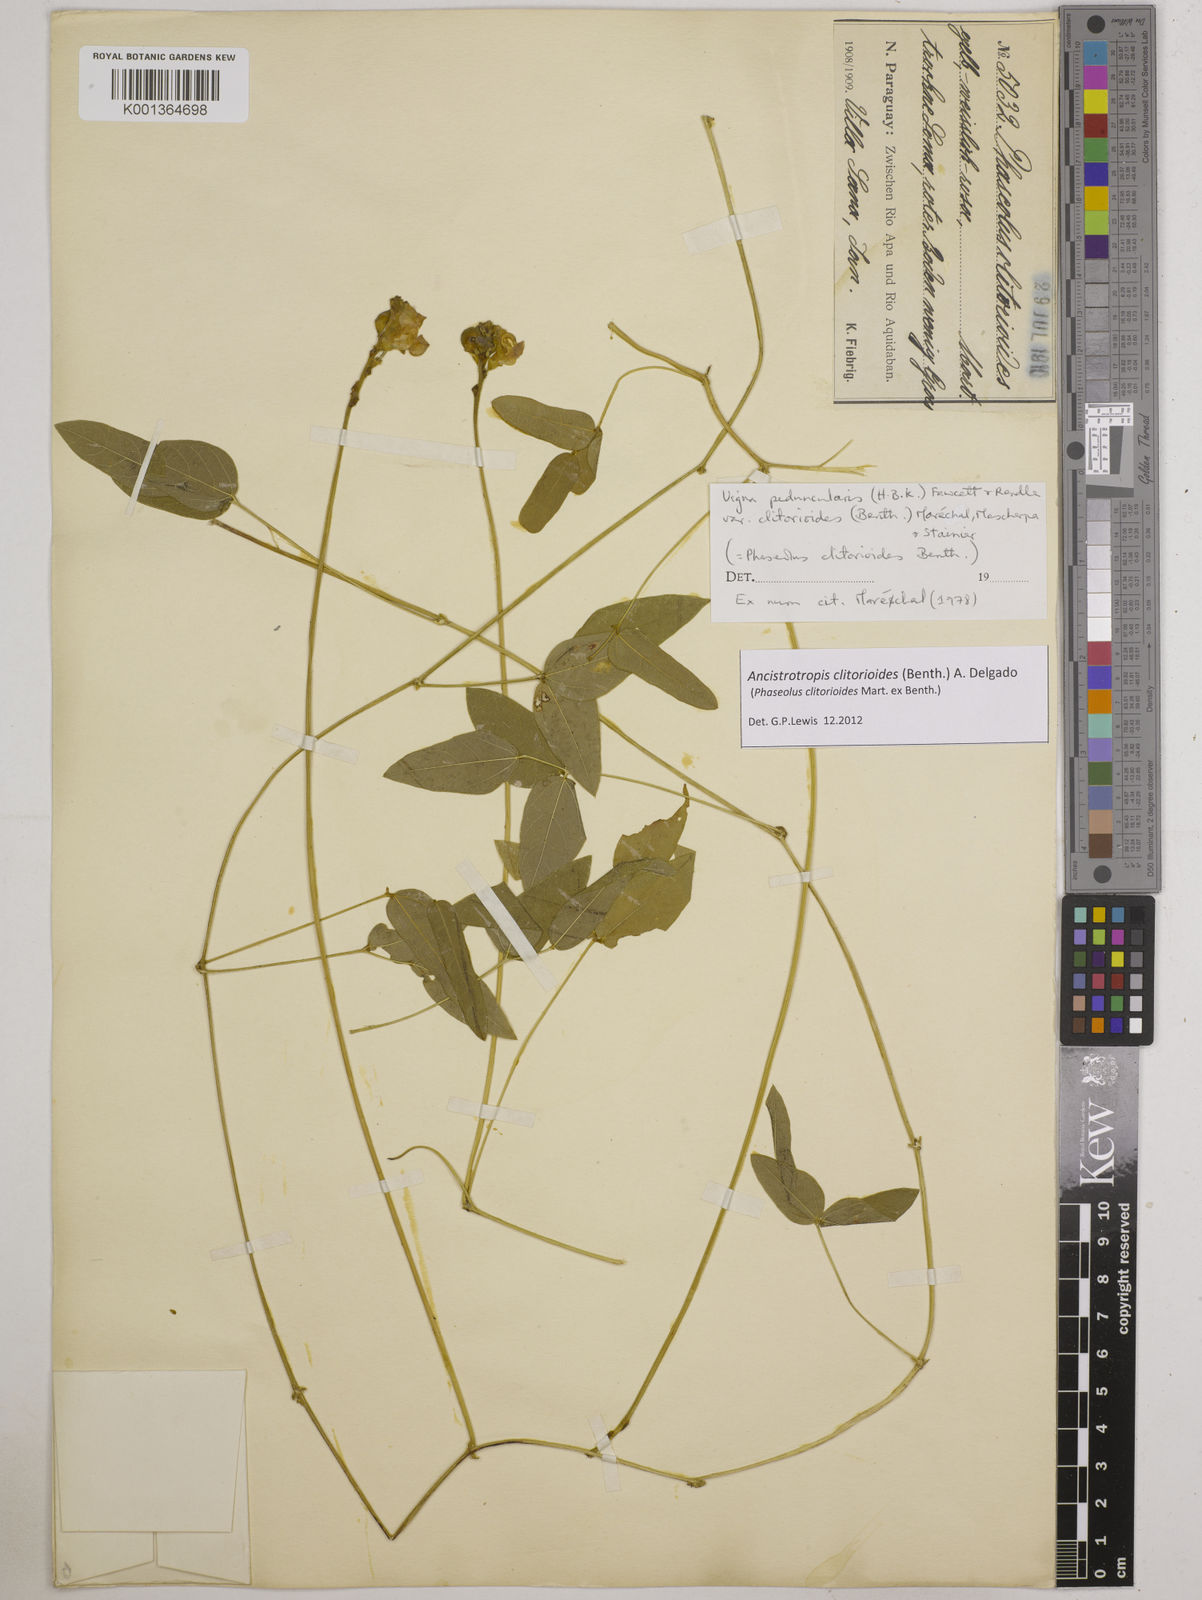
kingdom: Plantae
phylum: Tracheophyta
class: Magnoliopsida
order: Fabales
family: Fabaceae
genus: Ancistrotropis
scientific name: Ancistrotropis clitorioides
